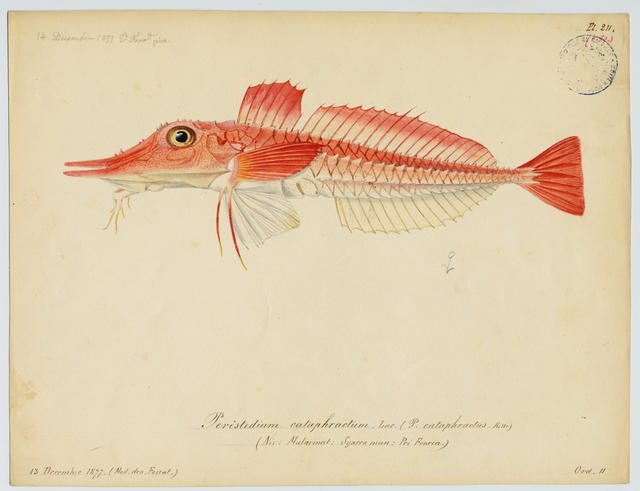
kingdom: Animalia
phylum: Chordata
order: Scorpaeniformes
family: Peristediidae
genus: Peristedion
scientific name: Peristedion cataphractum
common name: Armed gurnard
